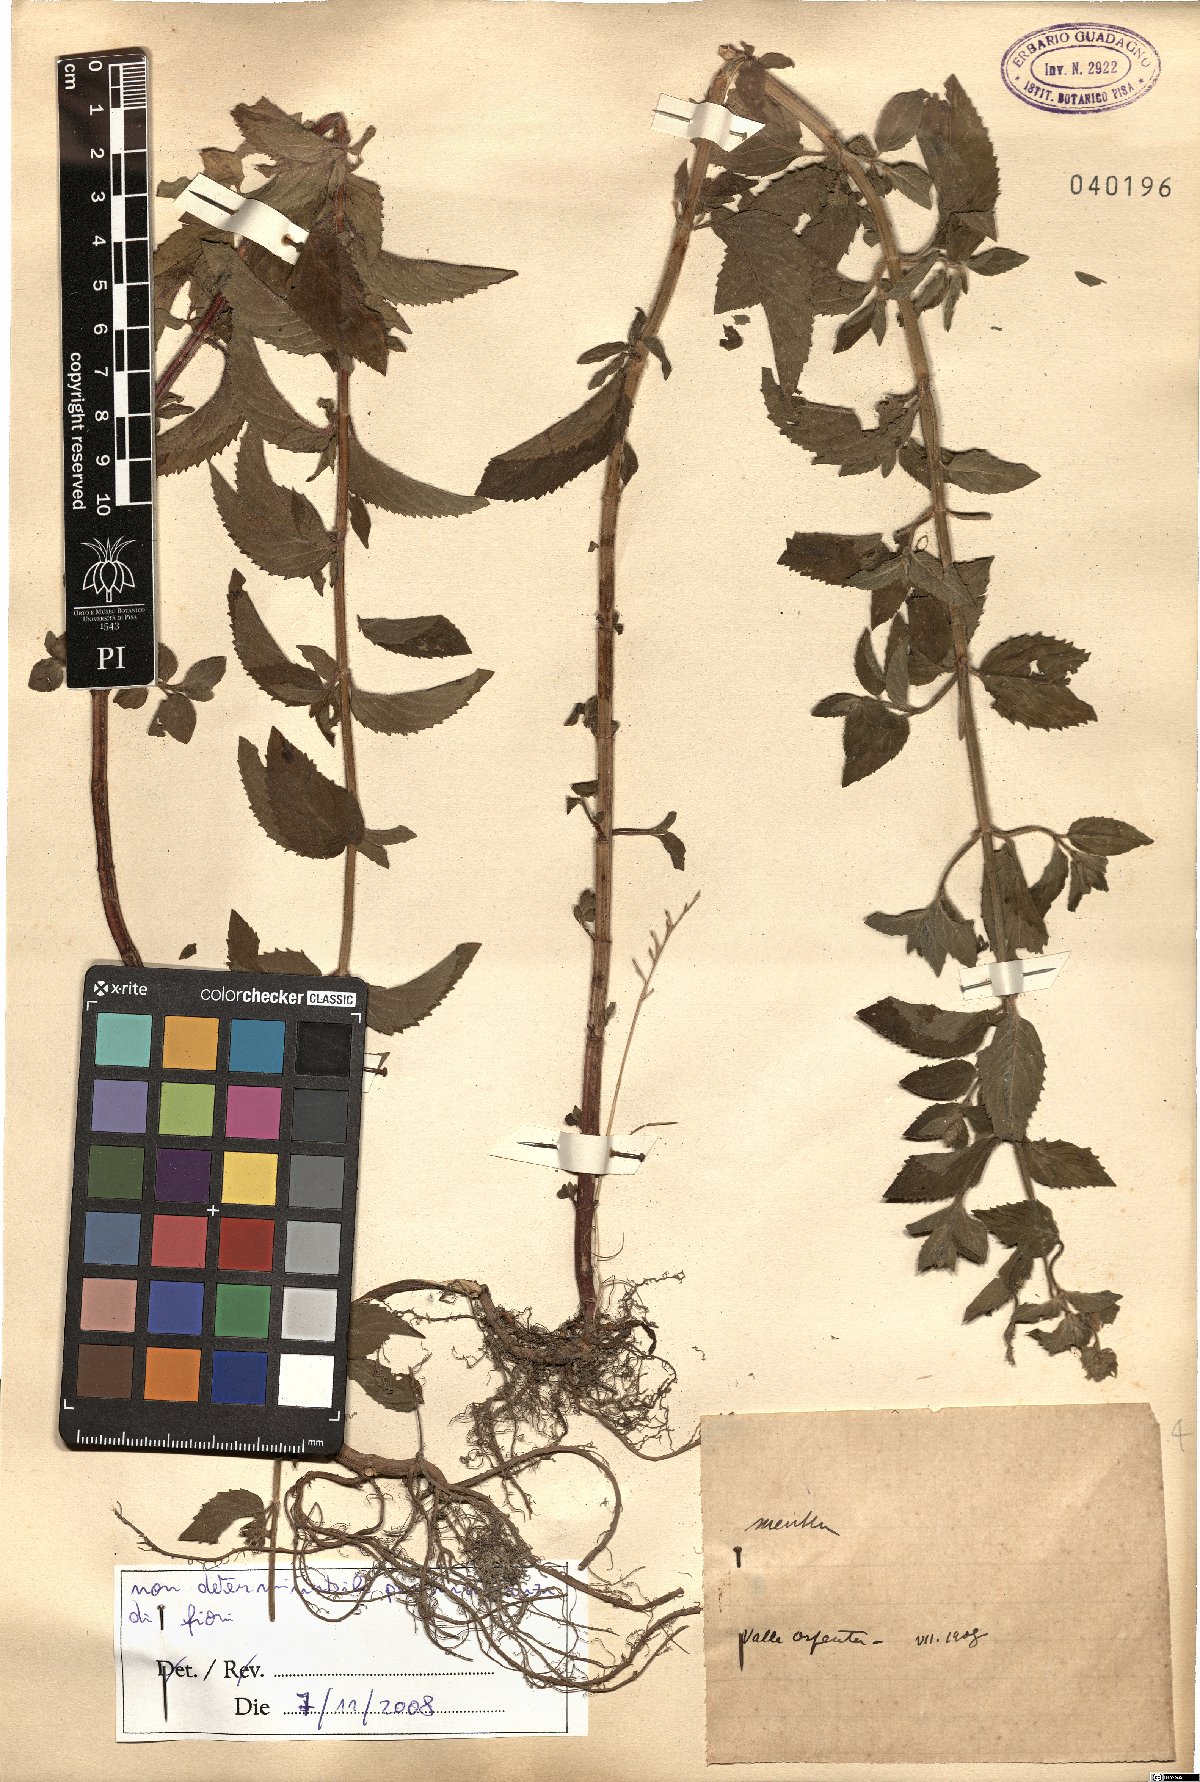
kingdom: Plantae
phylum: Tracheophyta
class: Magnoliopsida
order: Lamiales
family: Lamiaceae
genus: Mentha
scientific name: Mentha
